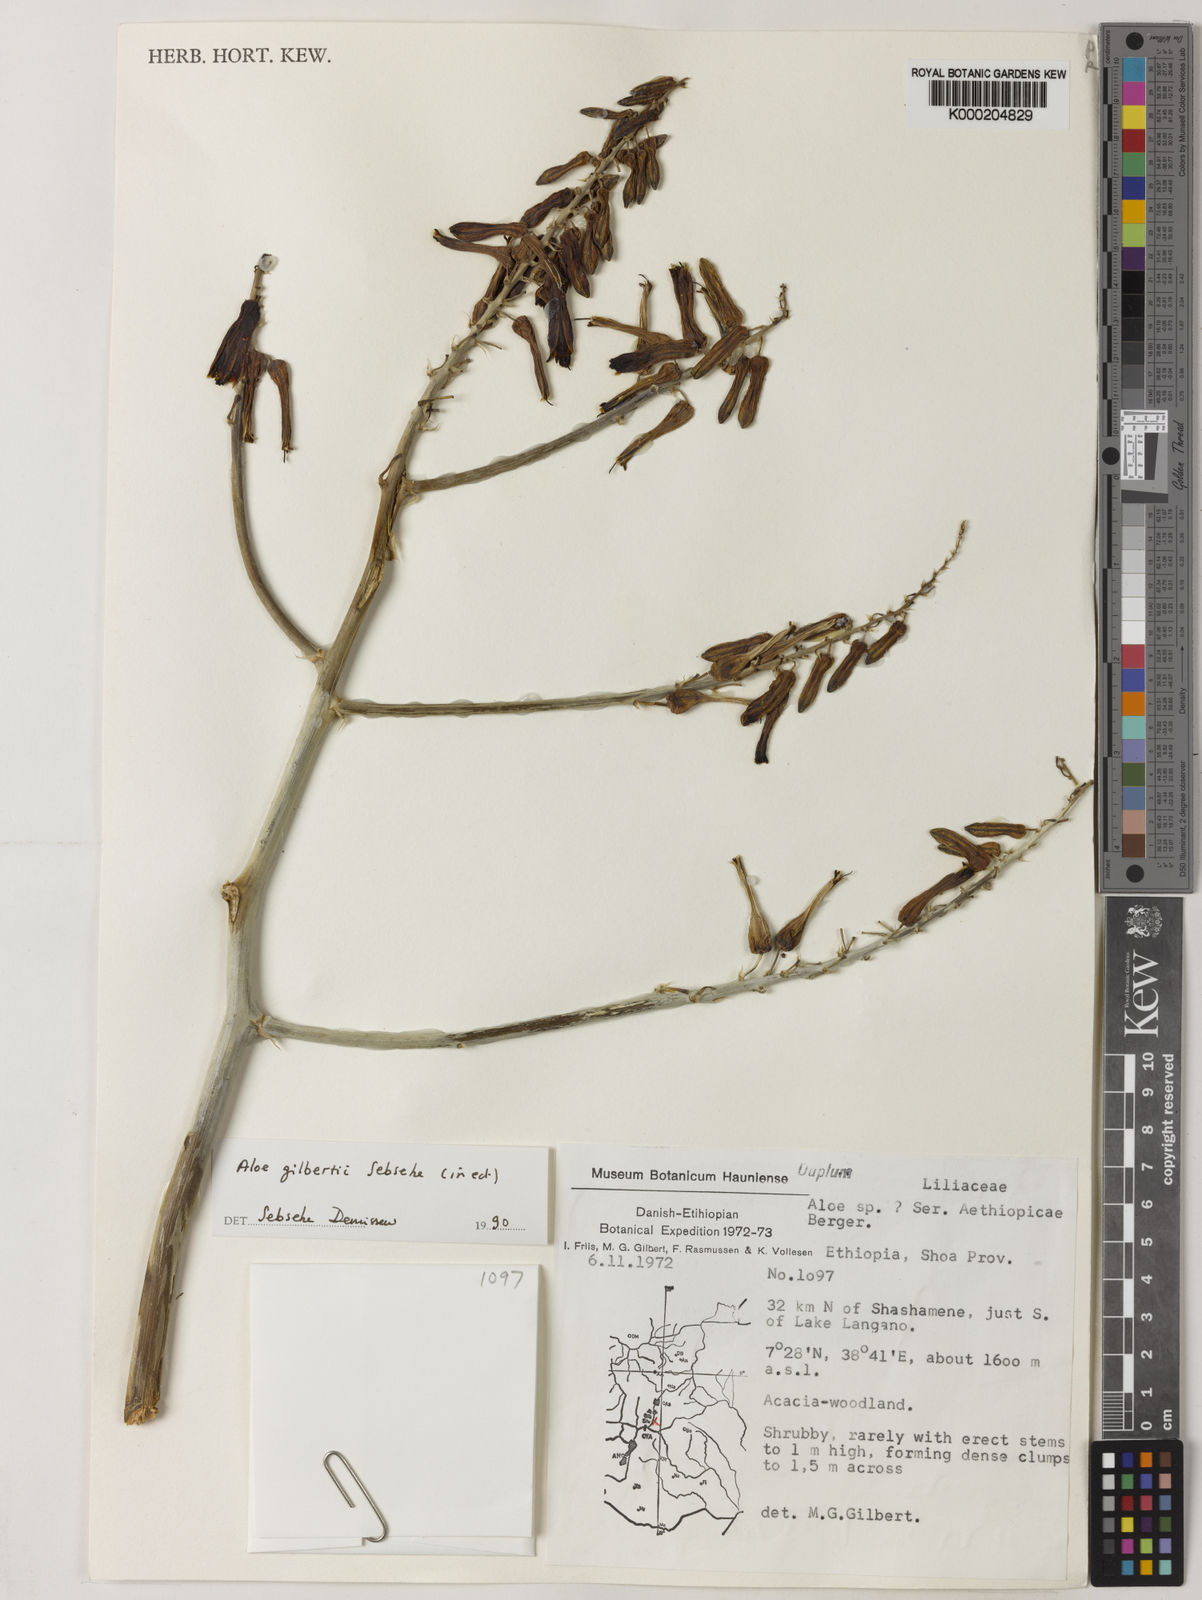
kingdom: Plantae
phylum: Tracheophyta
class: Liliopsida
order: Asparagales
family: Asphodelaceae
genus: Aloe
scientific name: Aloe gilbertii
